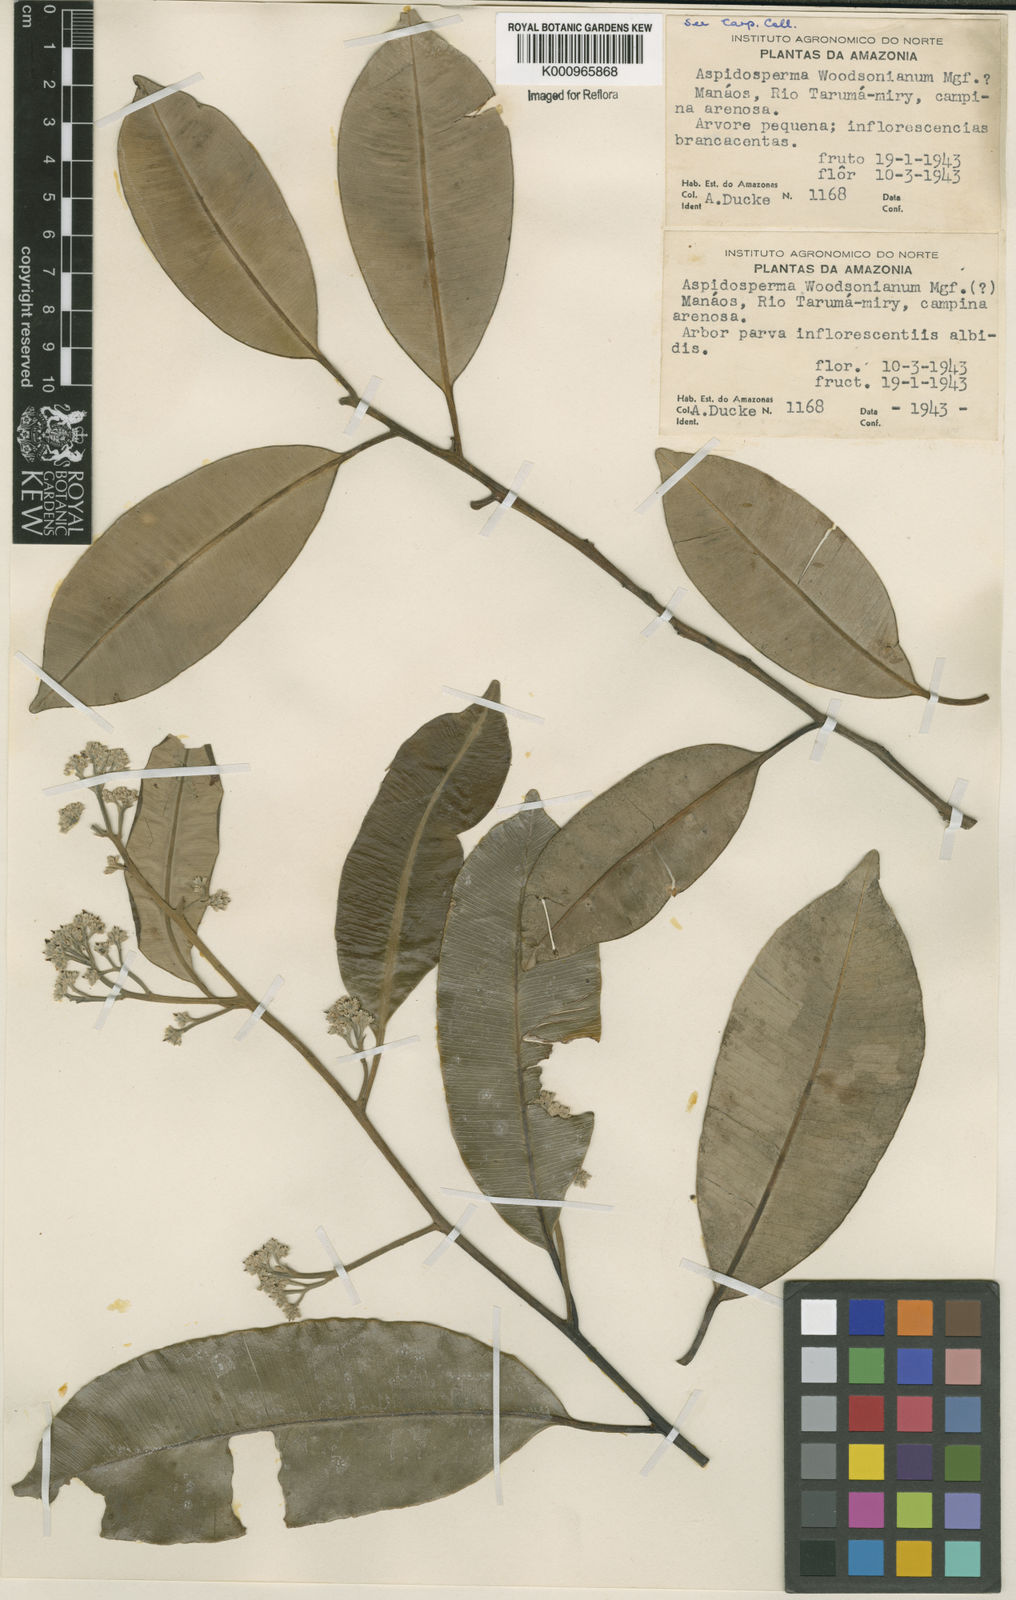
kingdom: Plantae
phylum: Tracheophyta
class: Magnoliopsida
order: Gentianales
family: Apocynaceae
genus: Aspidosperma
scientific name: Aspidosperma album
